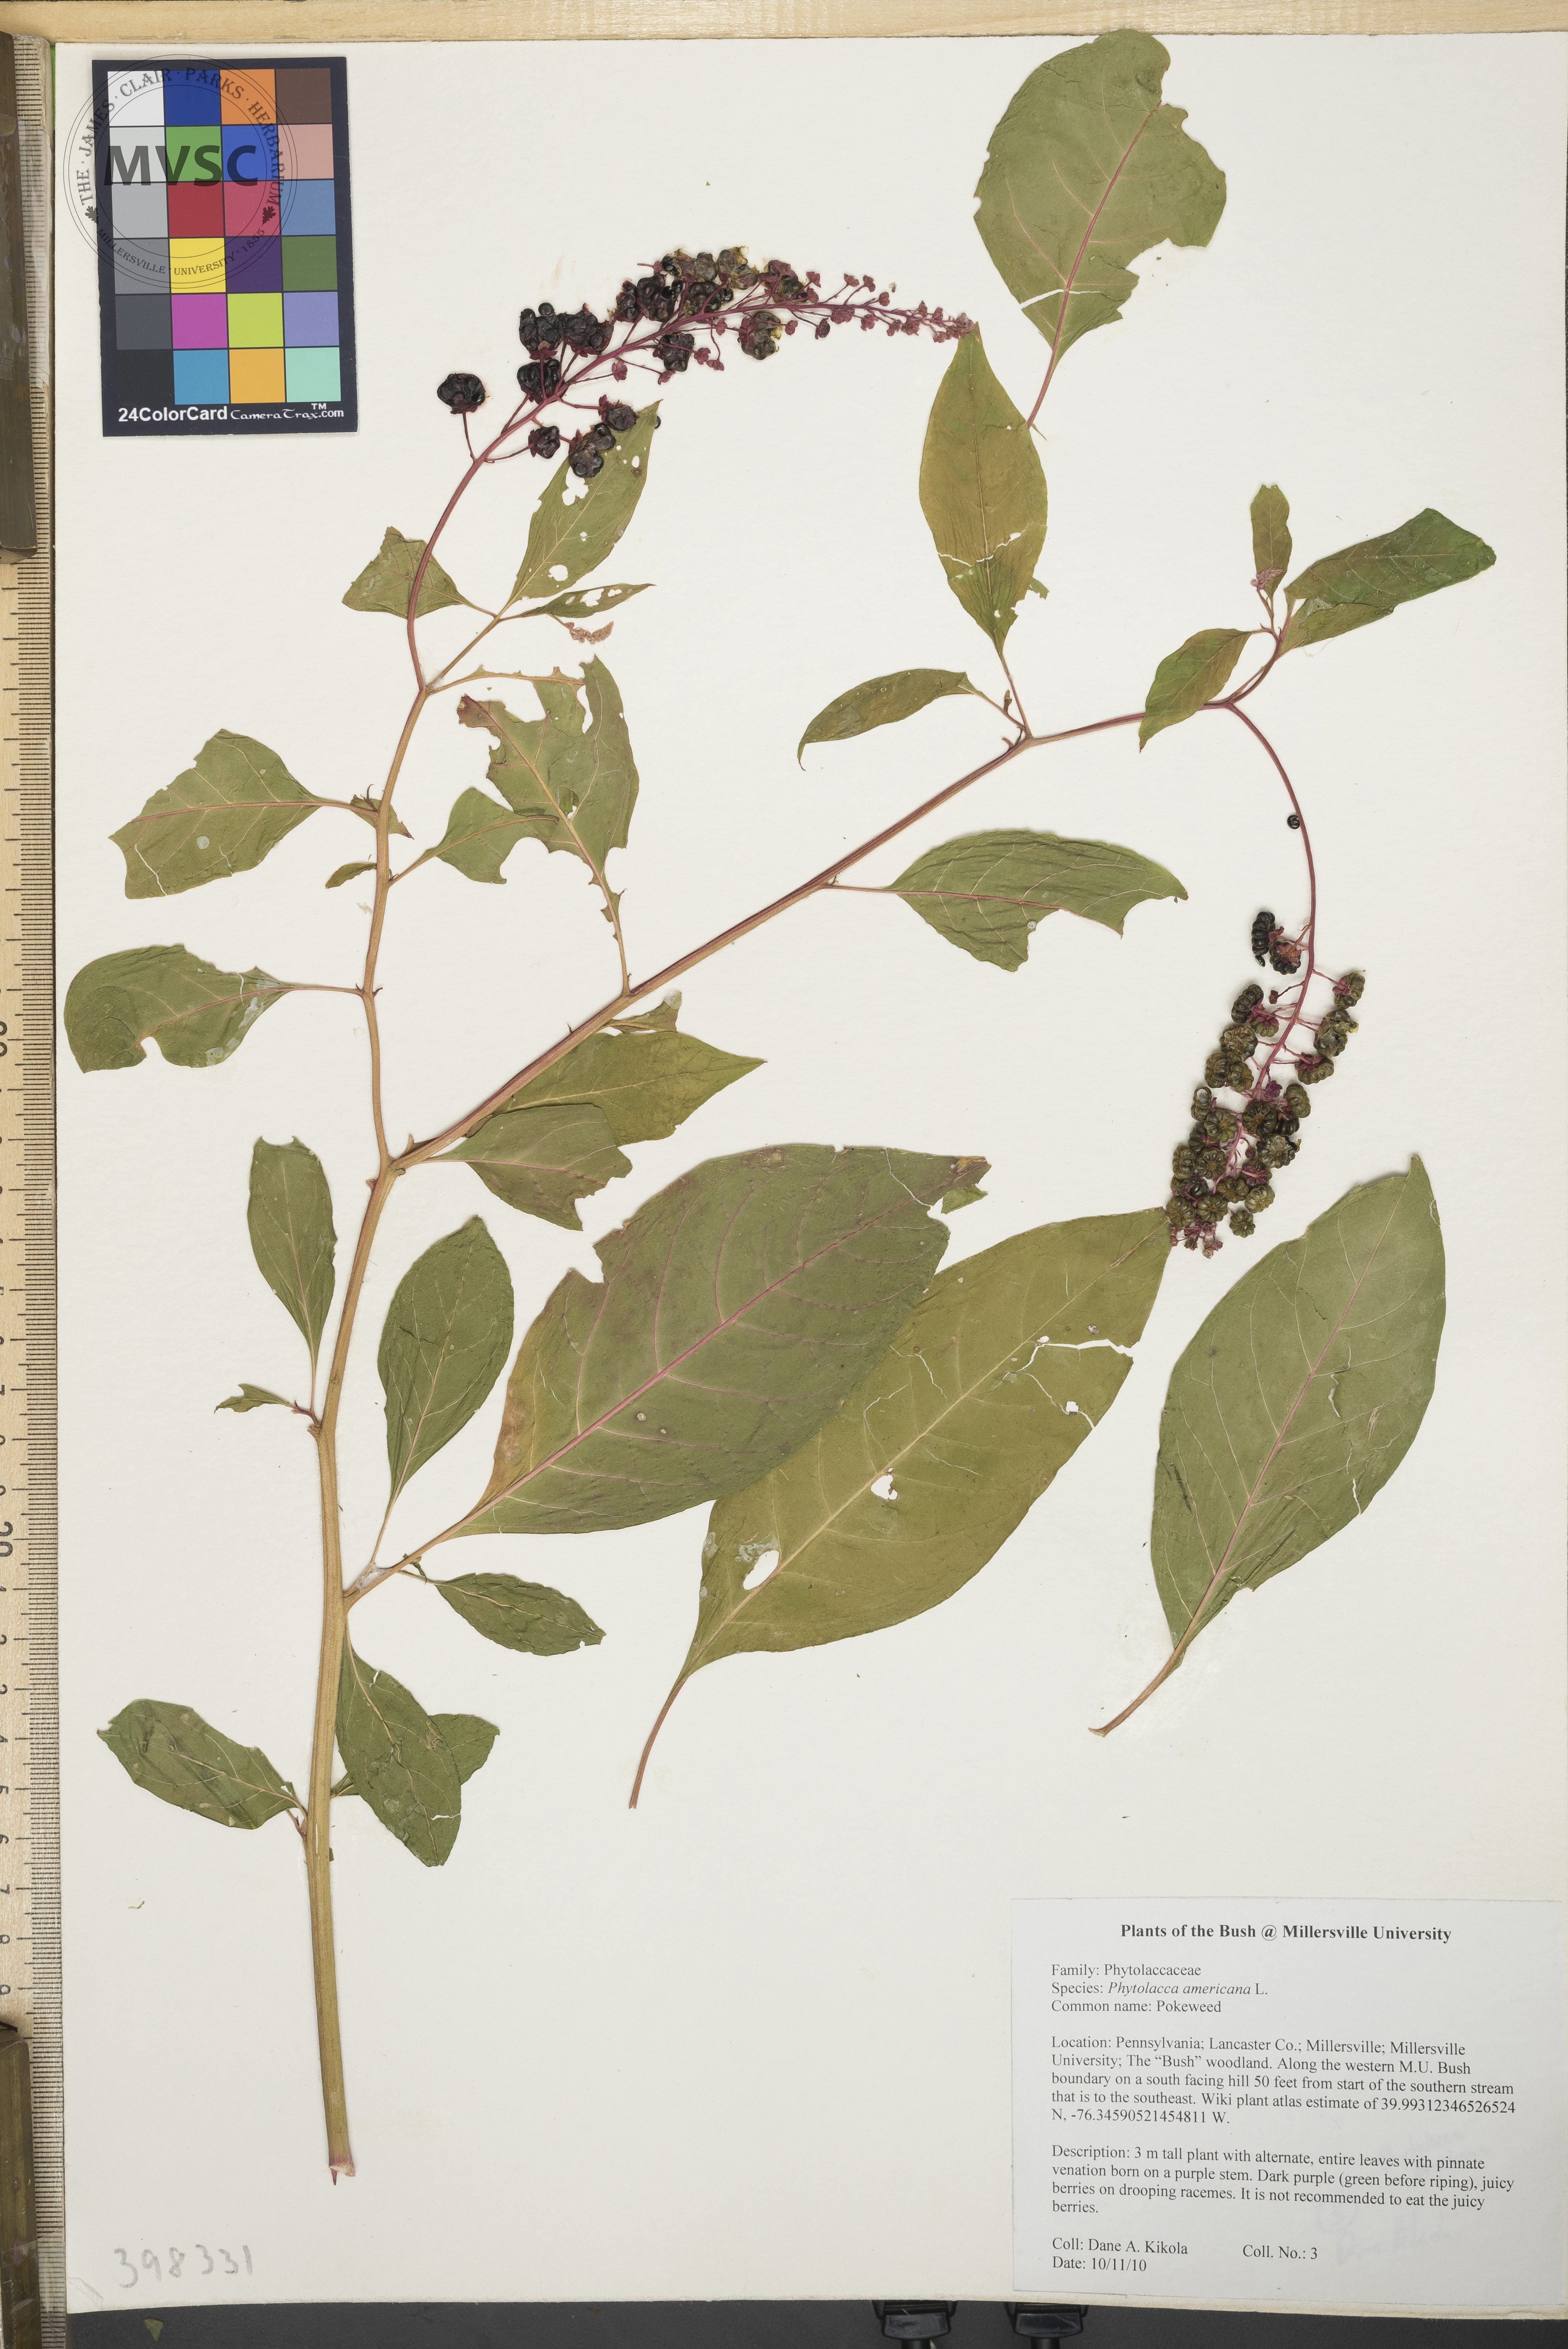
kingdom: Plantae
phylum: Tracheophyta
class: Magnoliopsida
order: Caryophyllales
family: Phytolaccaceae
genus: Phytolacca
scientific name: Phytolacca americana
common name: Pokeweed
